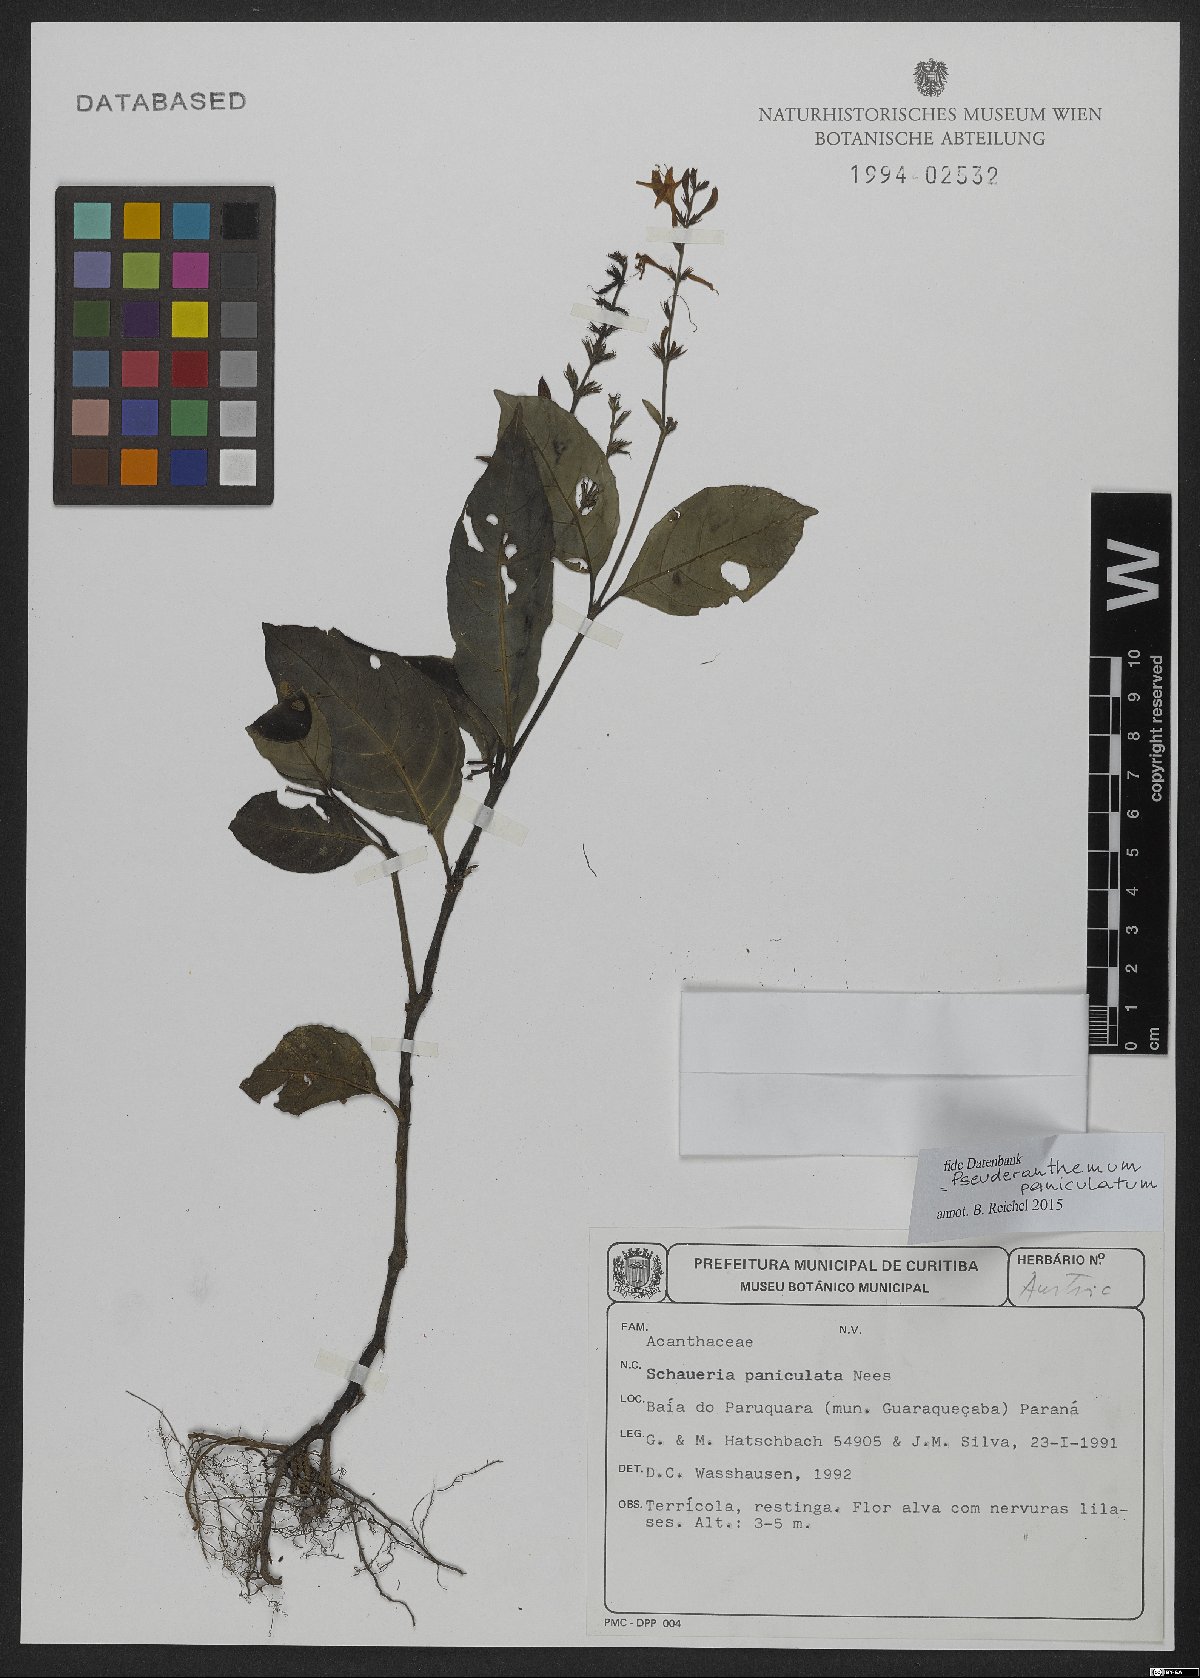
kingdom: Plantae
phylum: Tracheophyta
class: Magnoliopsida
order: Lamiales
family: Acanthaceae
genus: Pseuderanthemum
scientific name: Pseuderanthemum riedelianum
